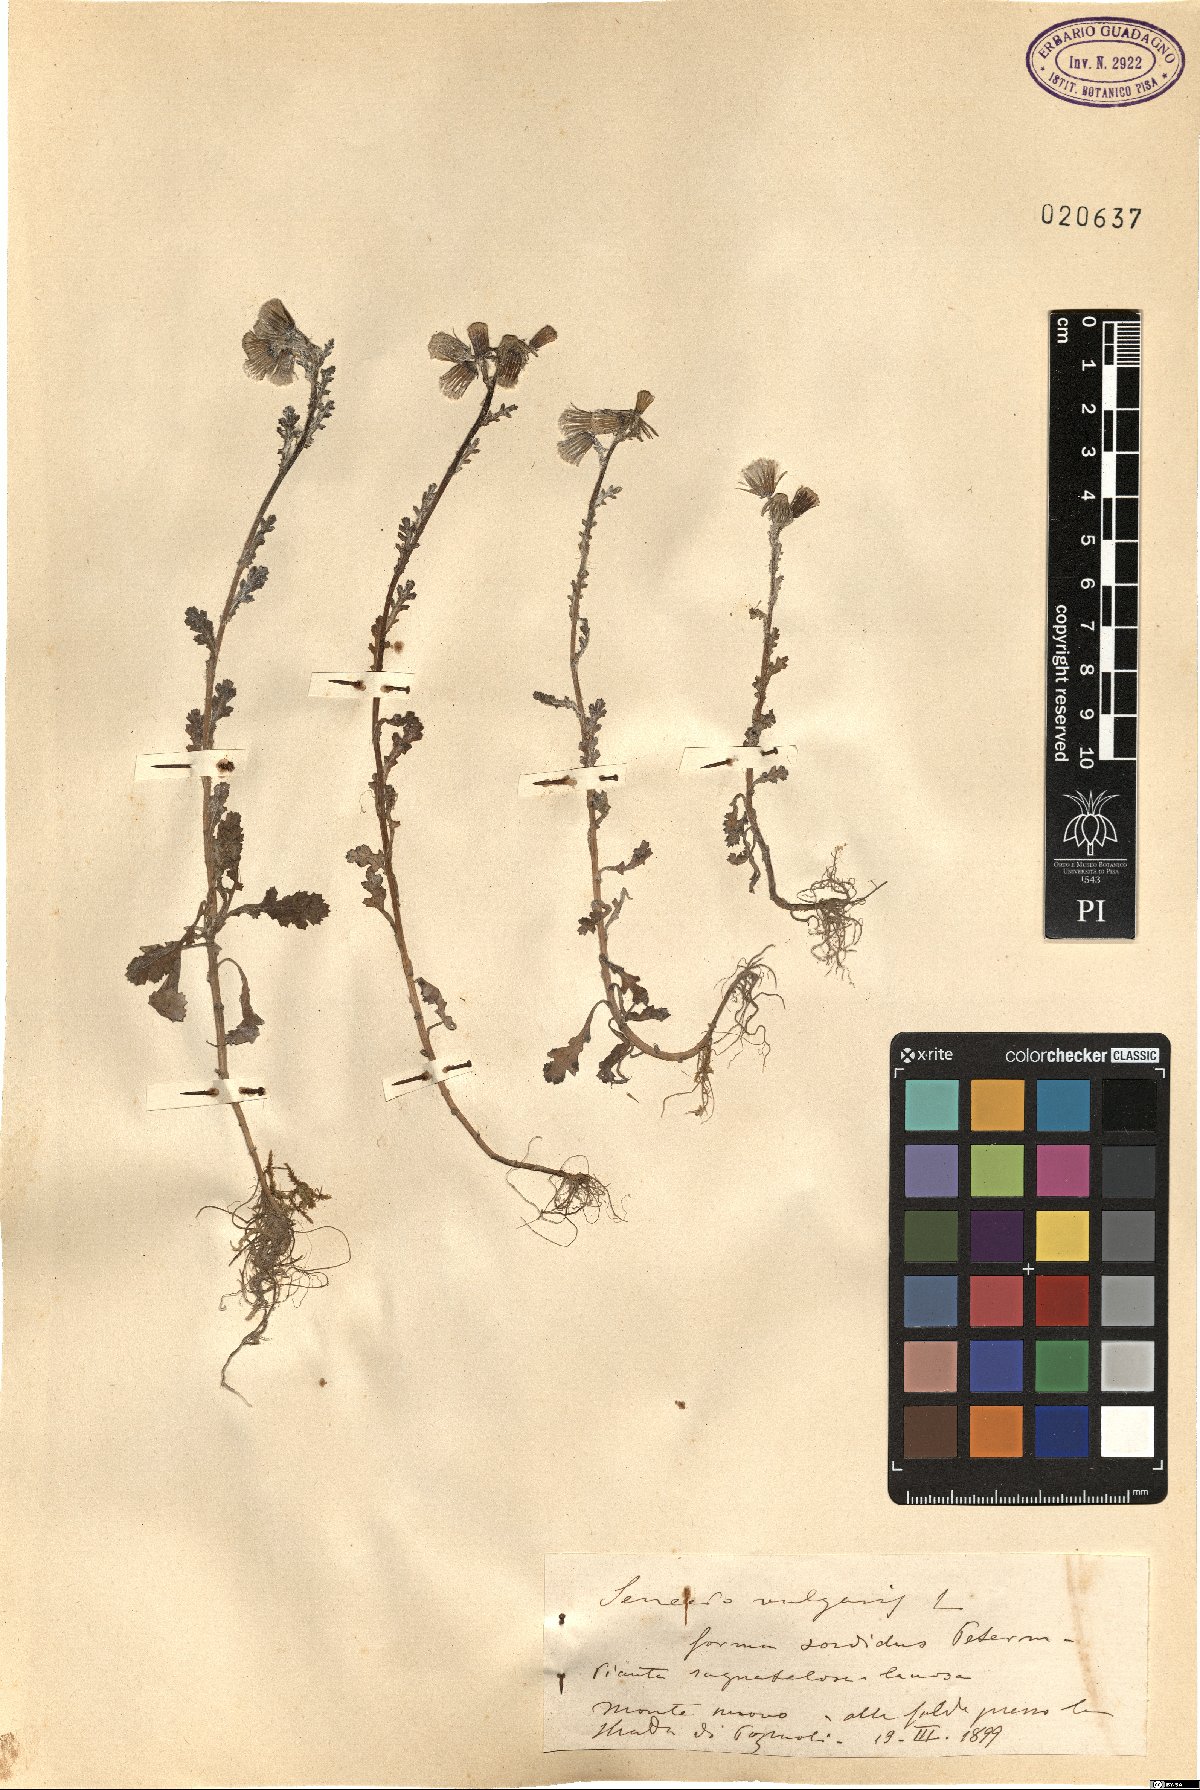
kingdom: Plantae
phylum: Tracheophyta
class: Magnoliopsida
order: Asterales
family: Asteraceae
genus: Senecio
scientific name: Senecio vulgaris
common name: Old-man-in-the-spring
